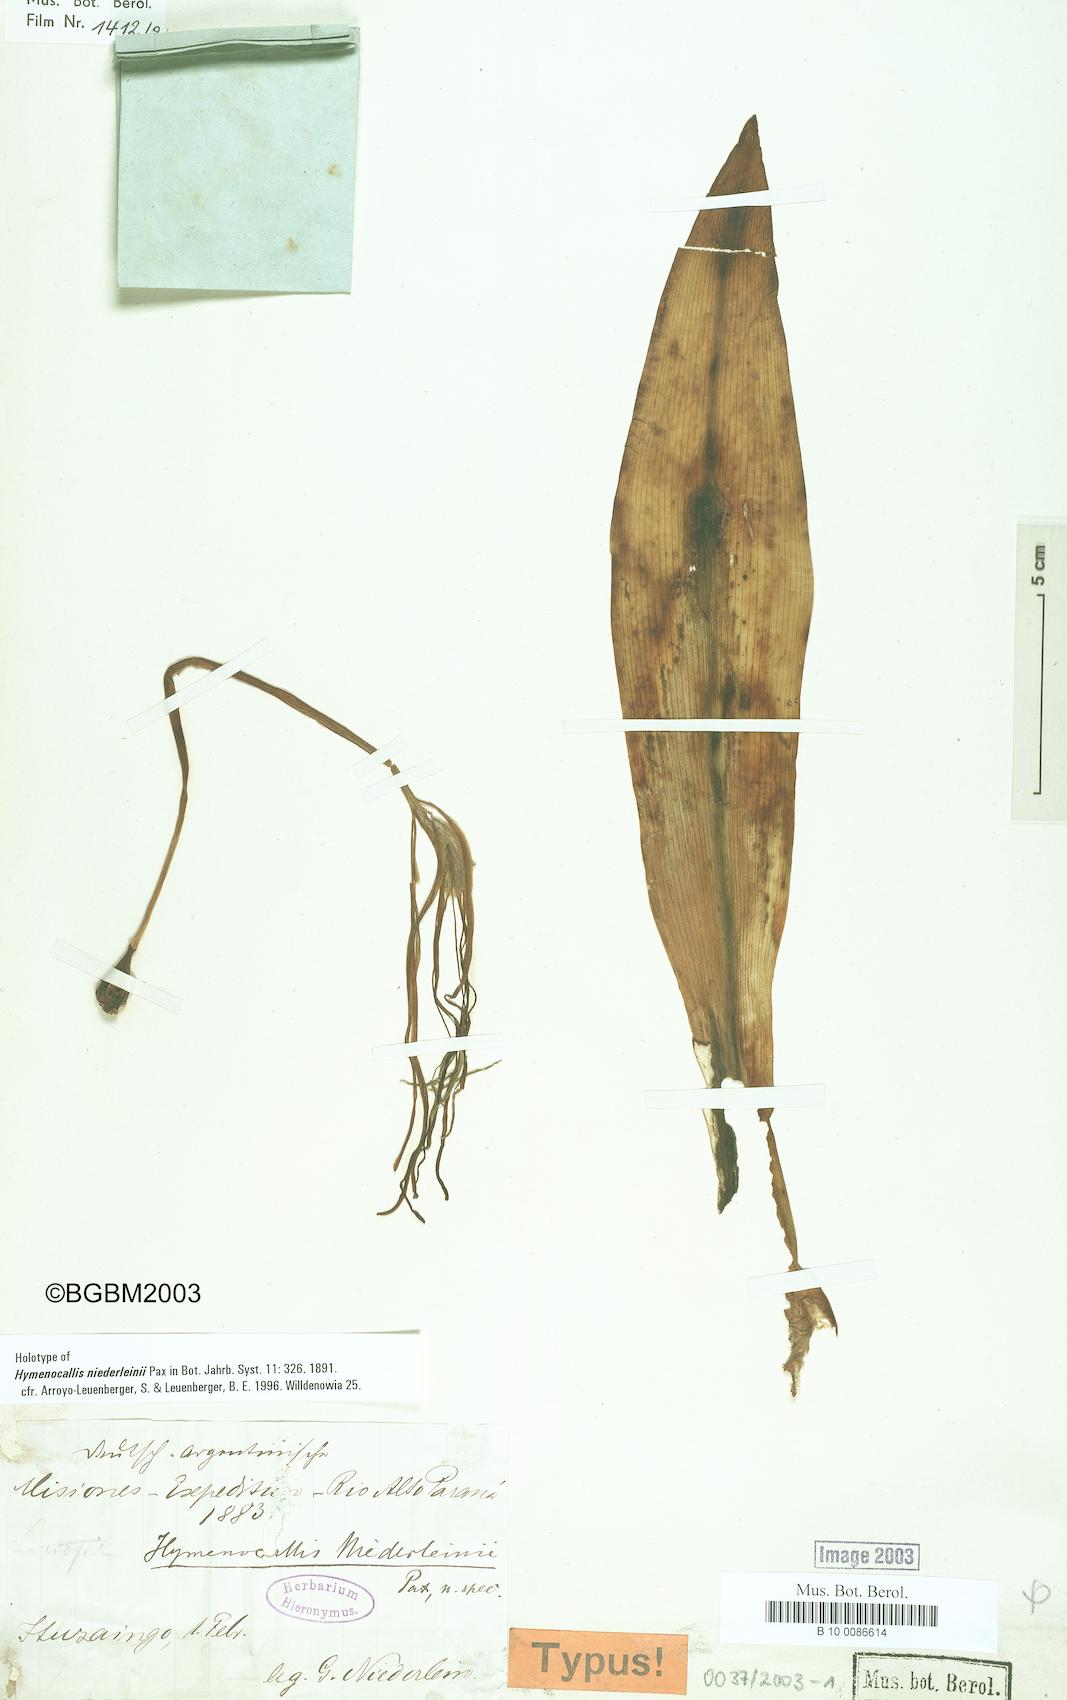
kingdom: Plantae
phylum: Tracheophyta
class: Liliopsida
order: Asparagales
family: Amaryllidaceae
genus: Hymenocallis
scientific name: Hymenocallis littoralis
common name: Beach spiderlily
